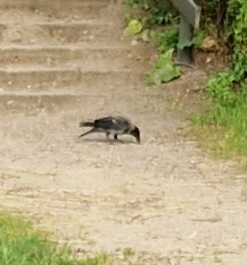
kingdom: Animalia
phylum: Chordata
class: Aves
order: Passeriformes
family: Corvidae
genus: Corvus
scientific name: Corvus cornix
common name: Gråkrage
